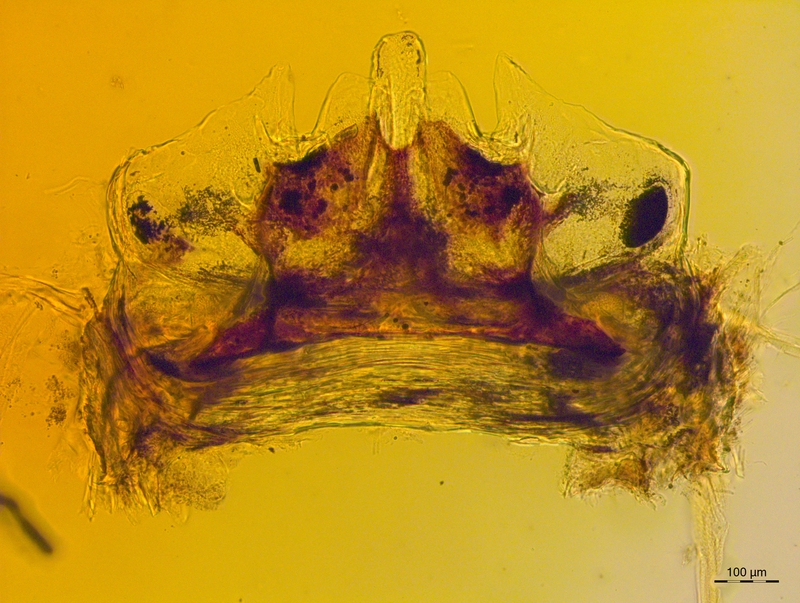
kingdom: Animalia
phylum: Arthropoda
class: Diplopoda
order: Chordeumatida
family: Craspedosomatidae
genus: Craspedosoma
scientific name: Craspedosoma taurinorum
